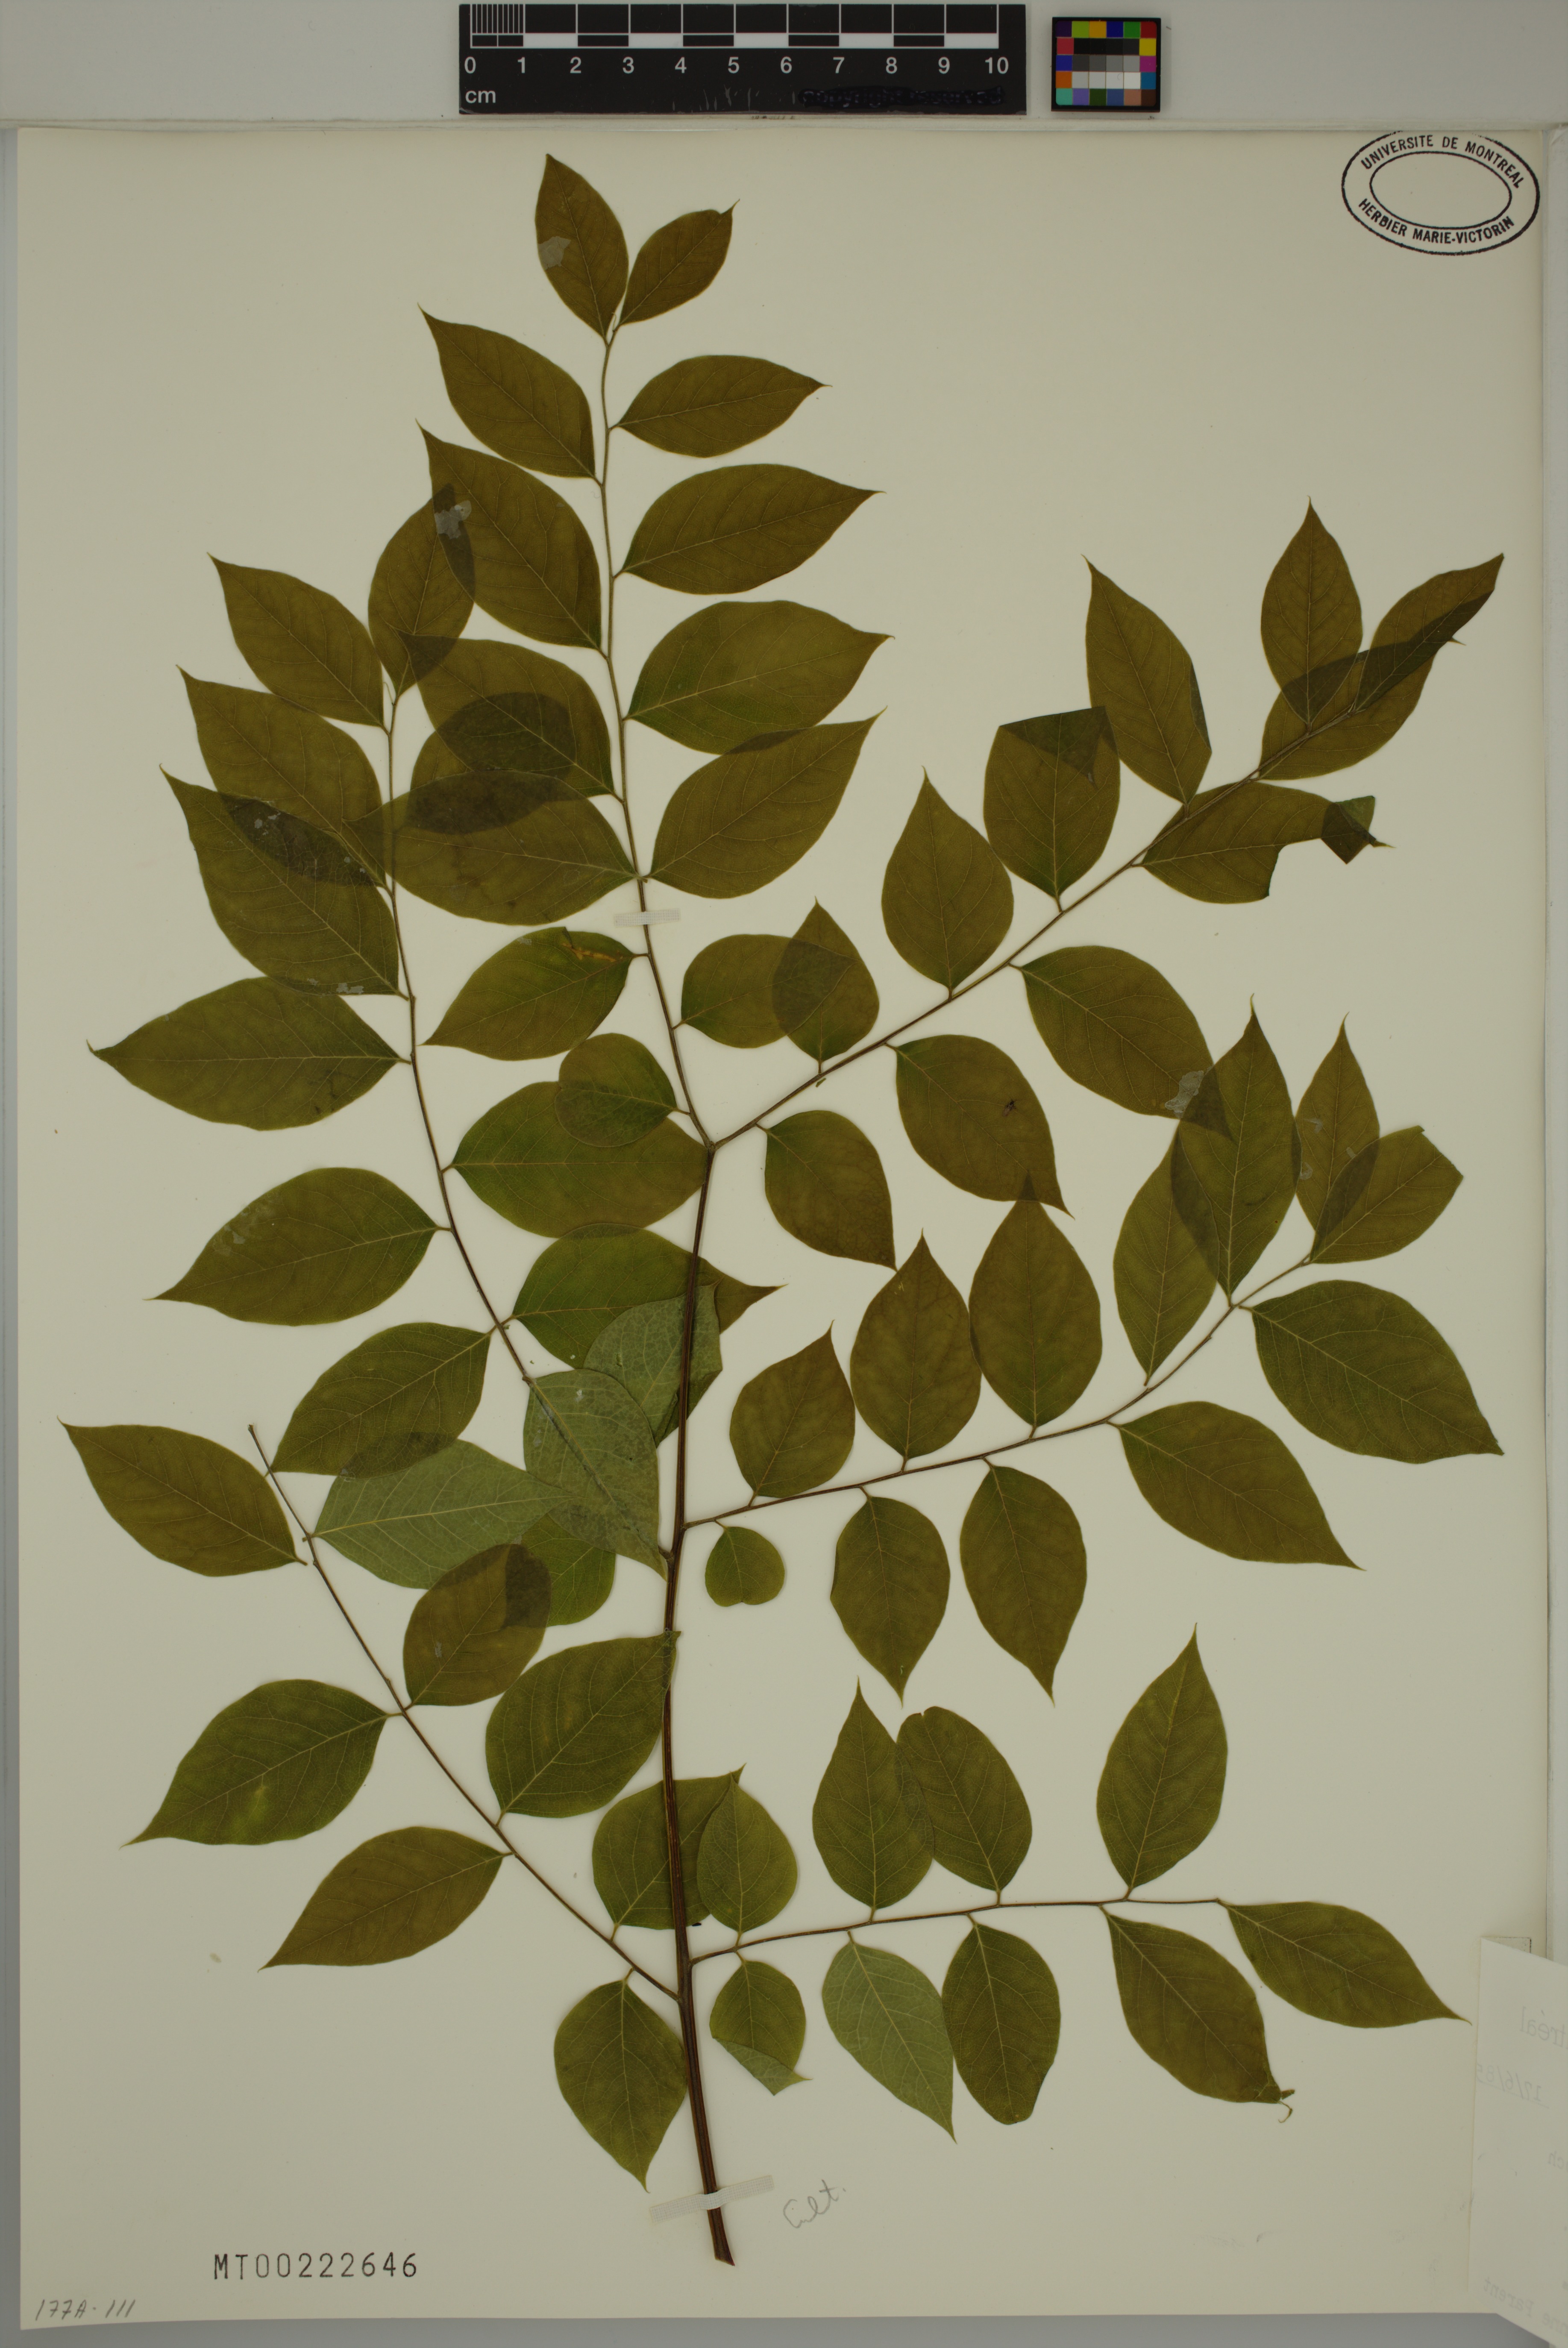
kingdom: Plantae
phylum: Tracheophyta
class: Magnoliopsida
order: Fabales
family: Fabaceae
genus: Gymnocladus
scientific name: Gymnocladus dioicus
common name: Kentucky coffee-tree
